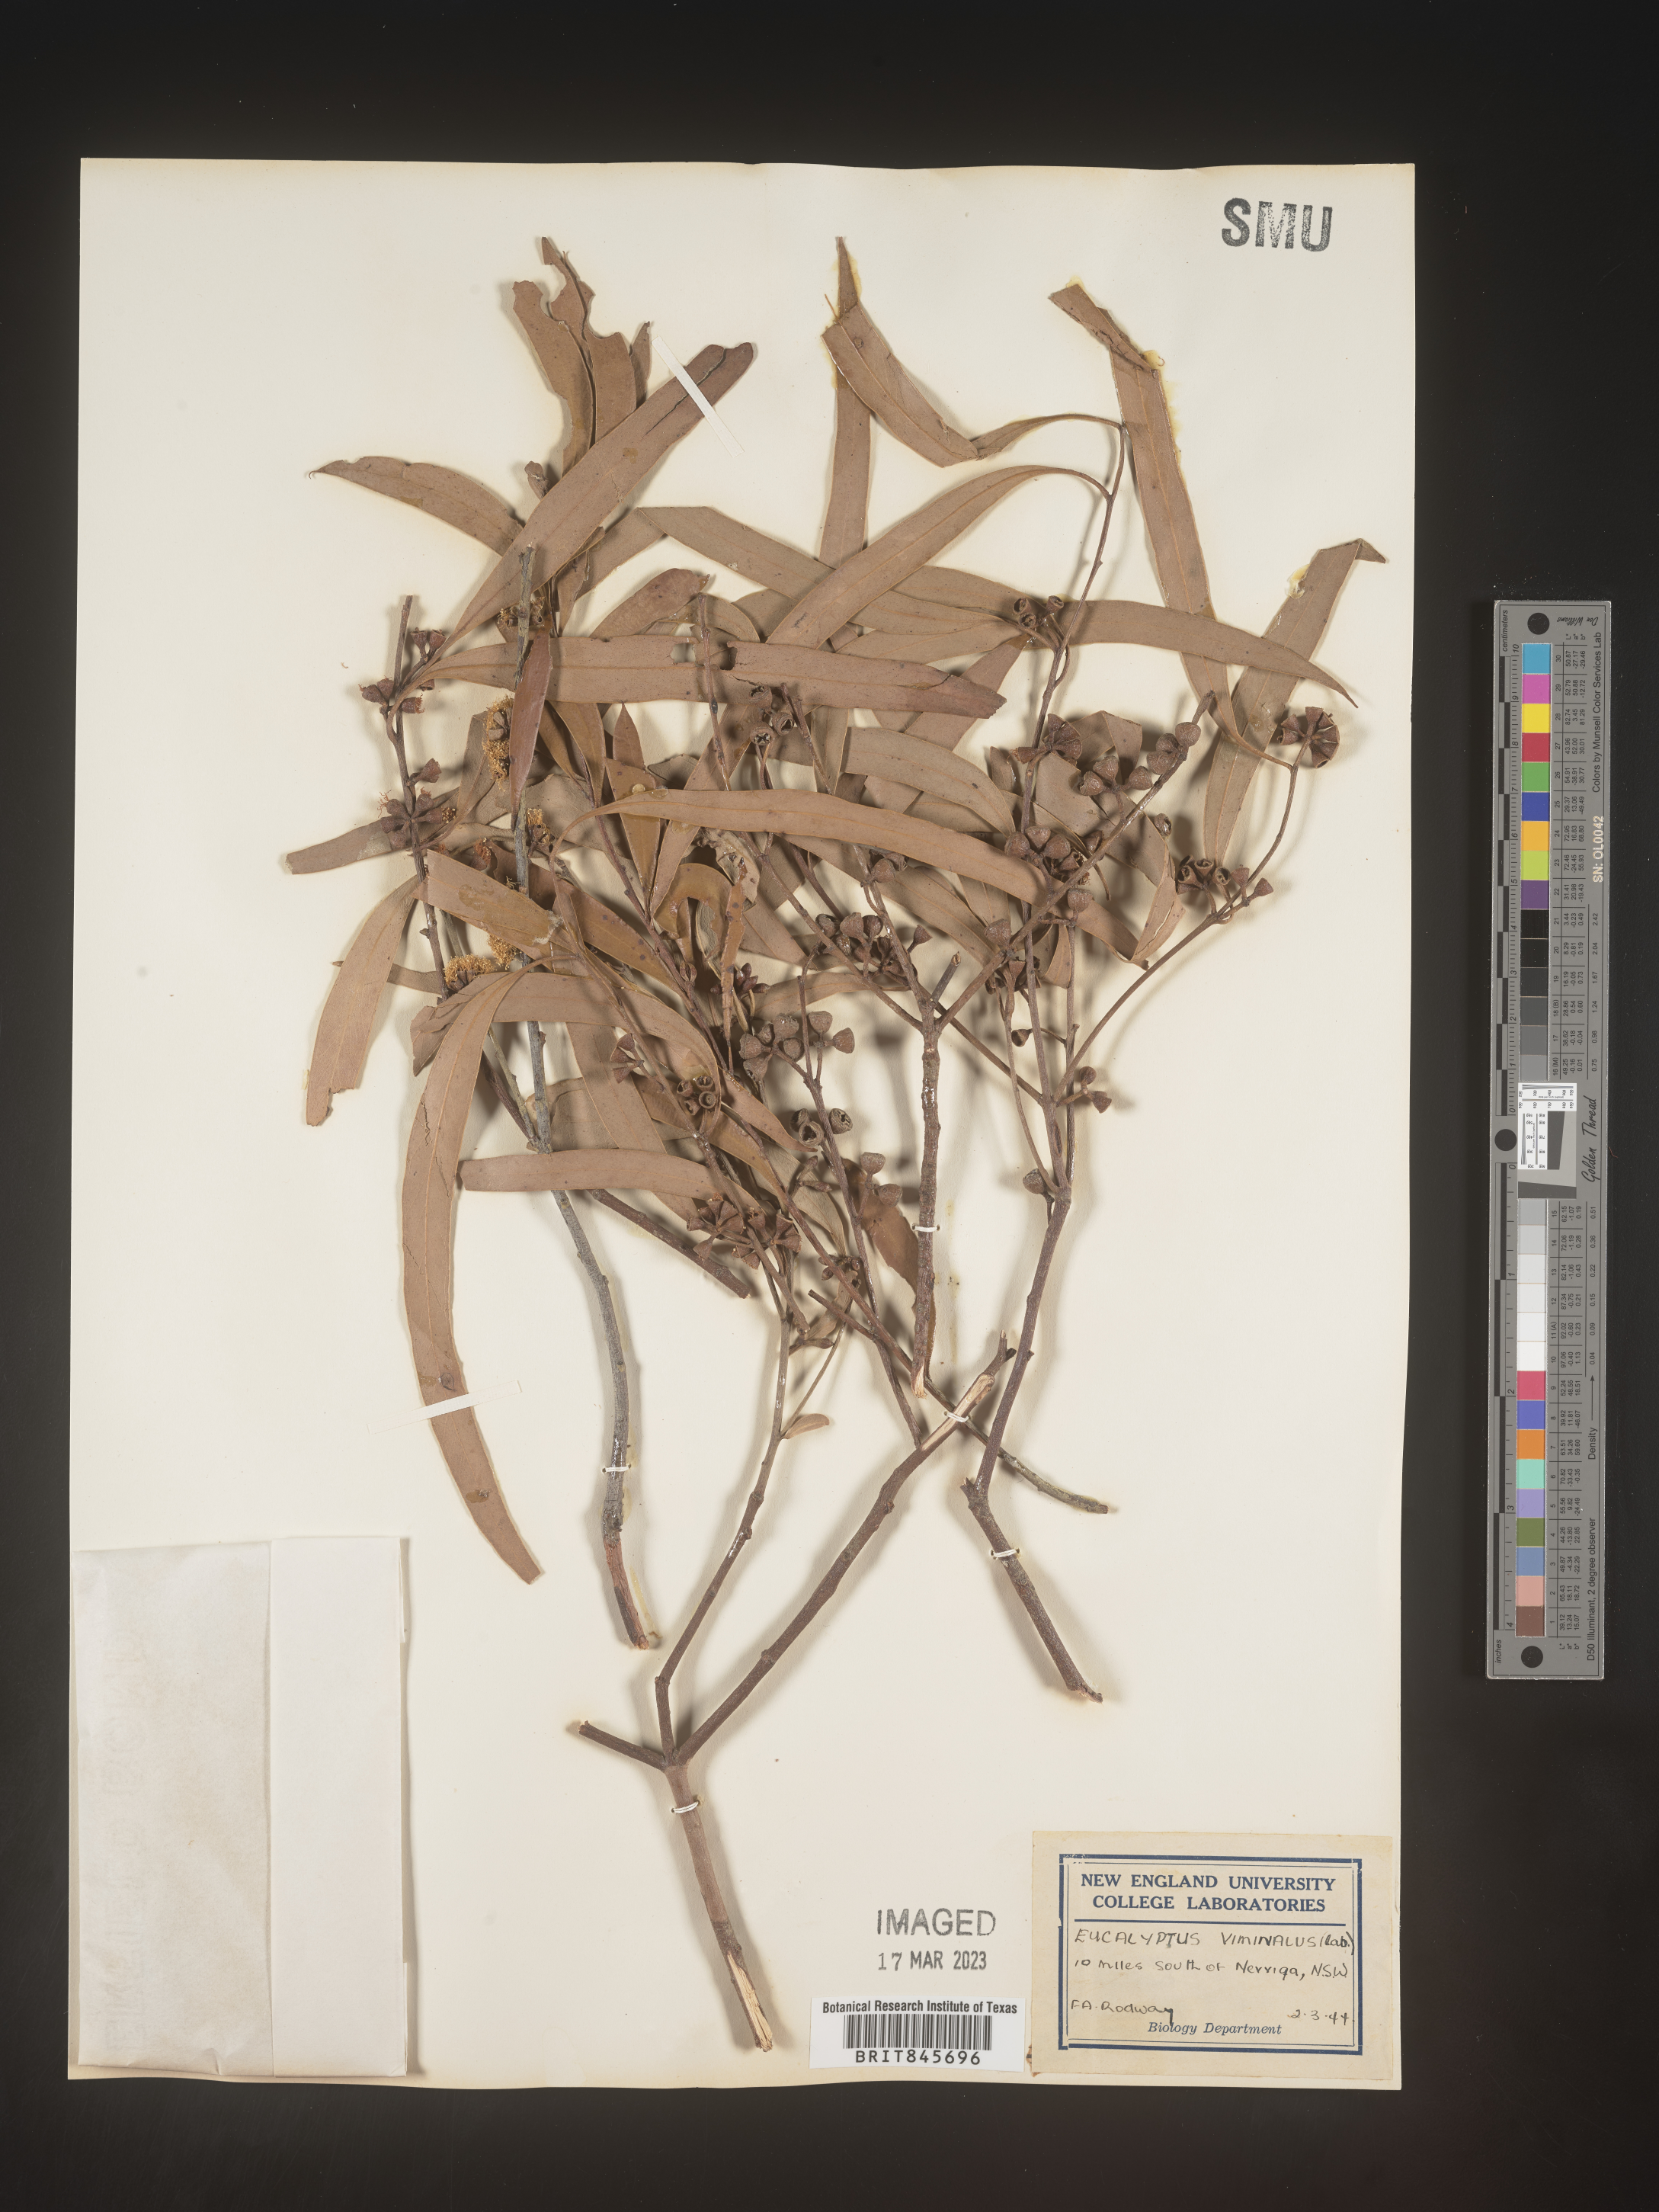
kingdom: Plantae
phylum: Tracheophyta
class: Magnoliopsida
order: Myrtales
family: Myrtaceae
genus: Eucalyptus
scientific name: Eucalyptus
